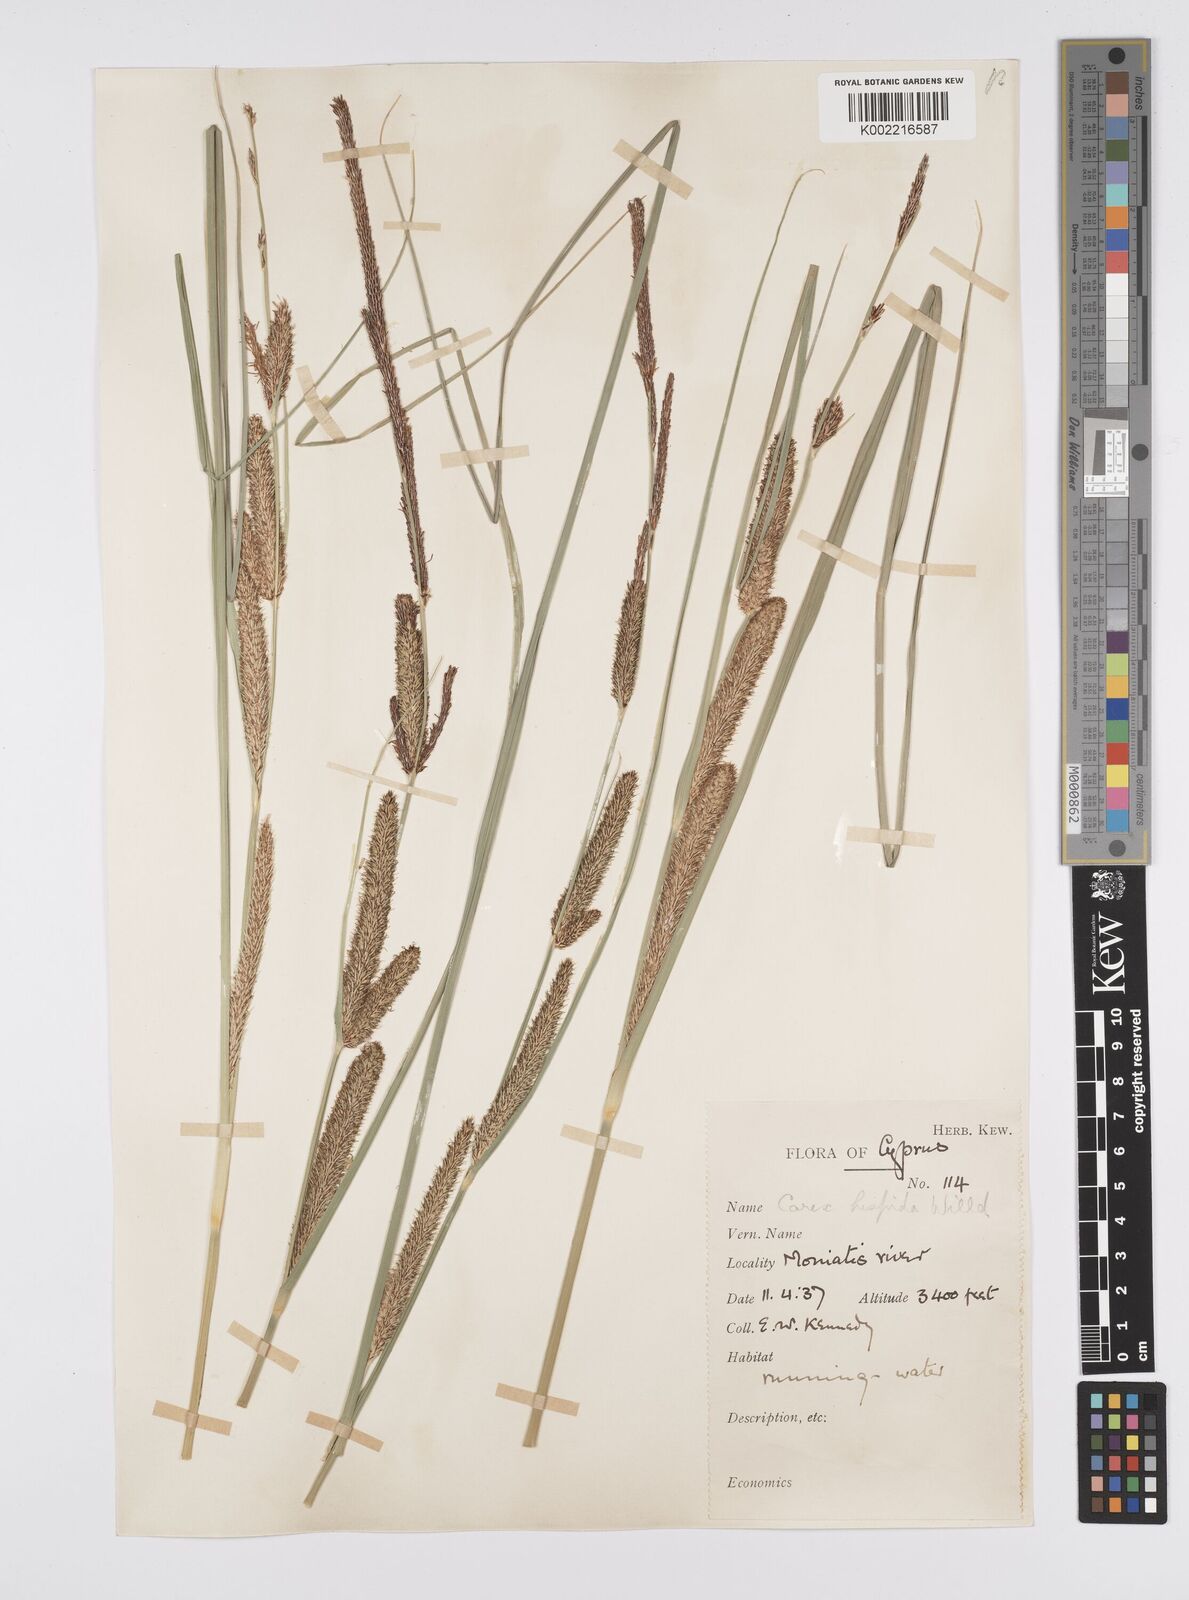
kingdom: Plantae
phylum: Tracheophyta
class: Liliopsida
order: Poales
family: Cyperaceae
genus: Carex
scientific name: Carex hispida
